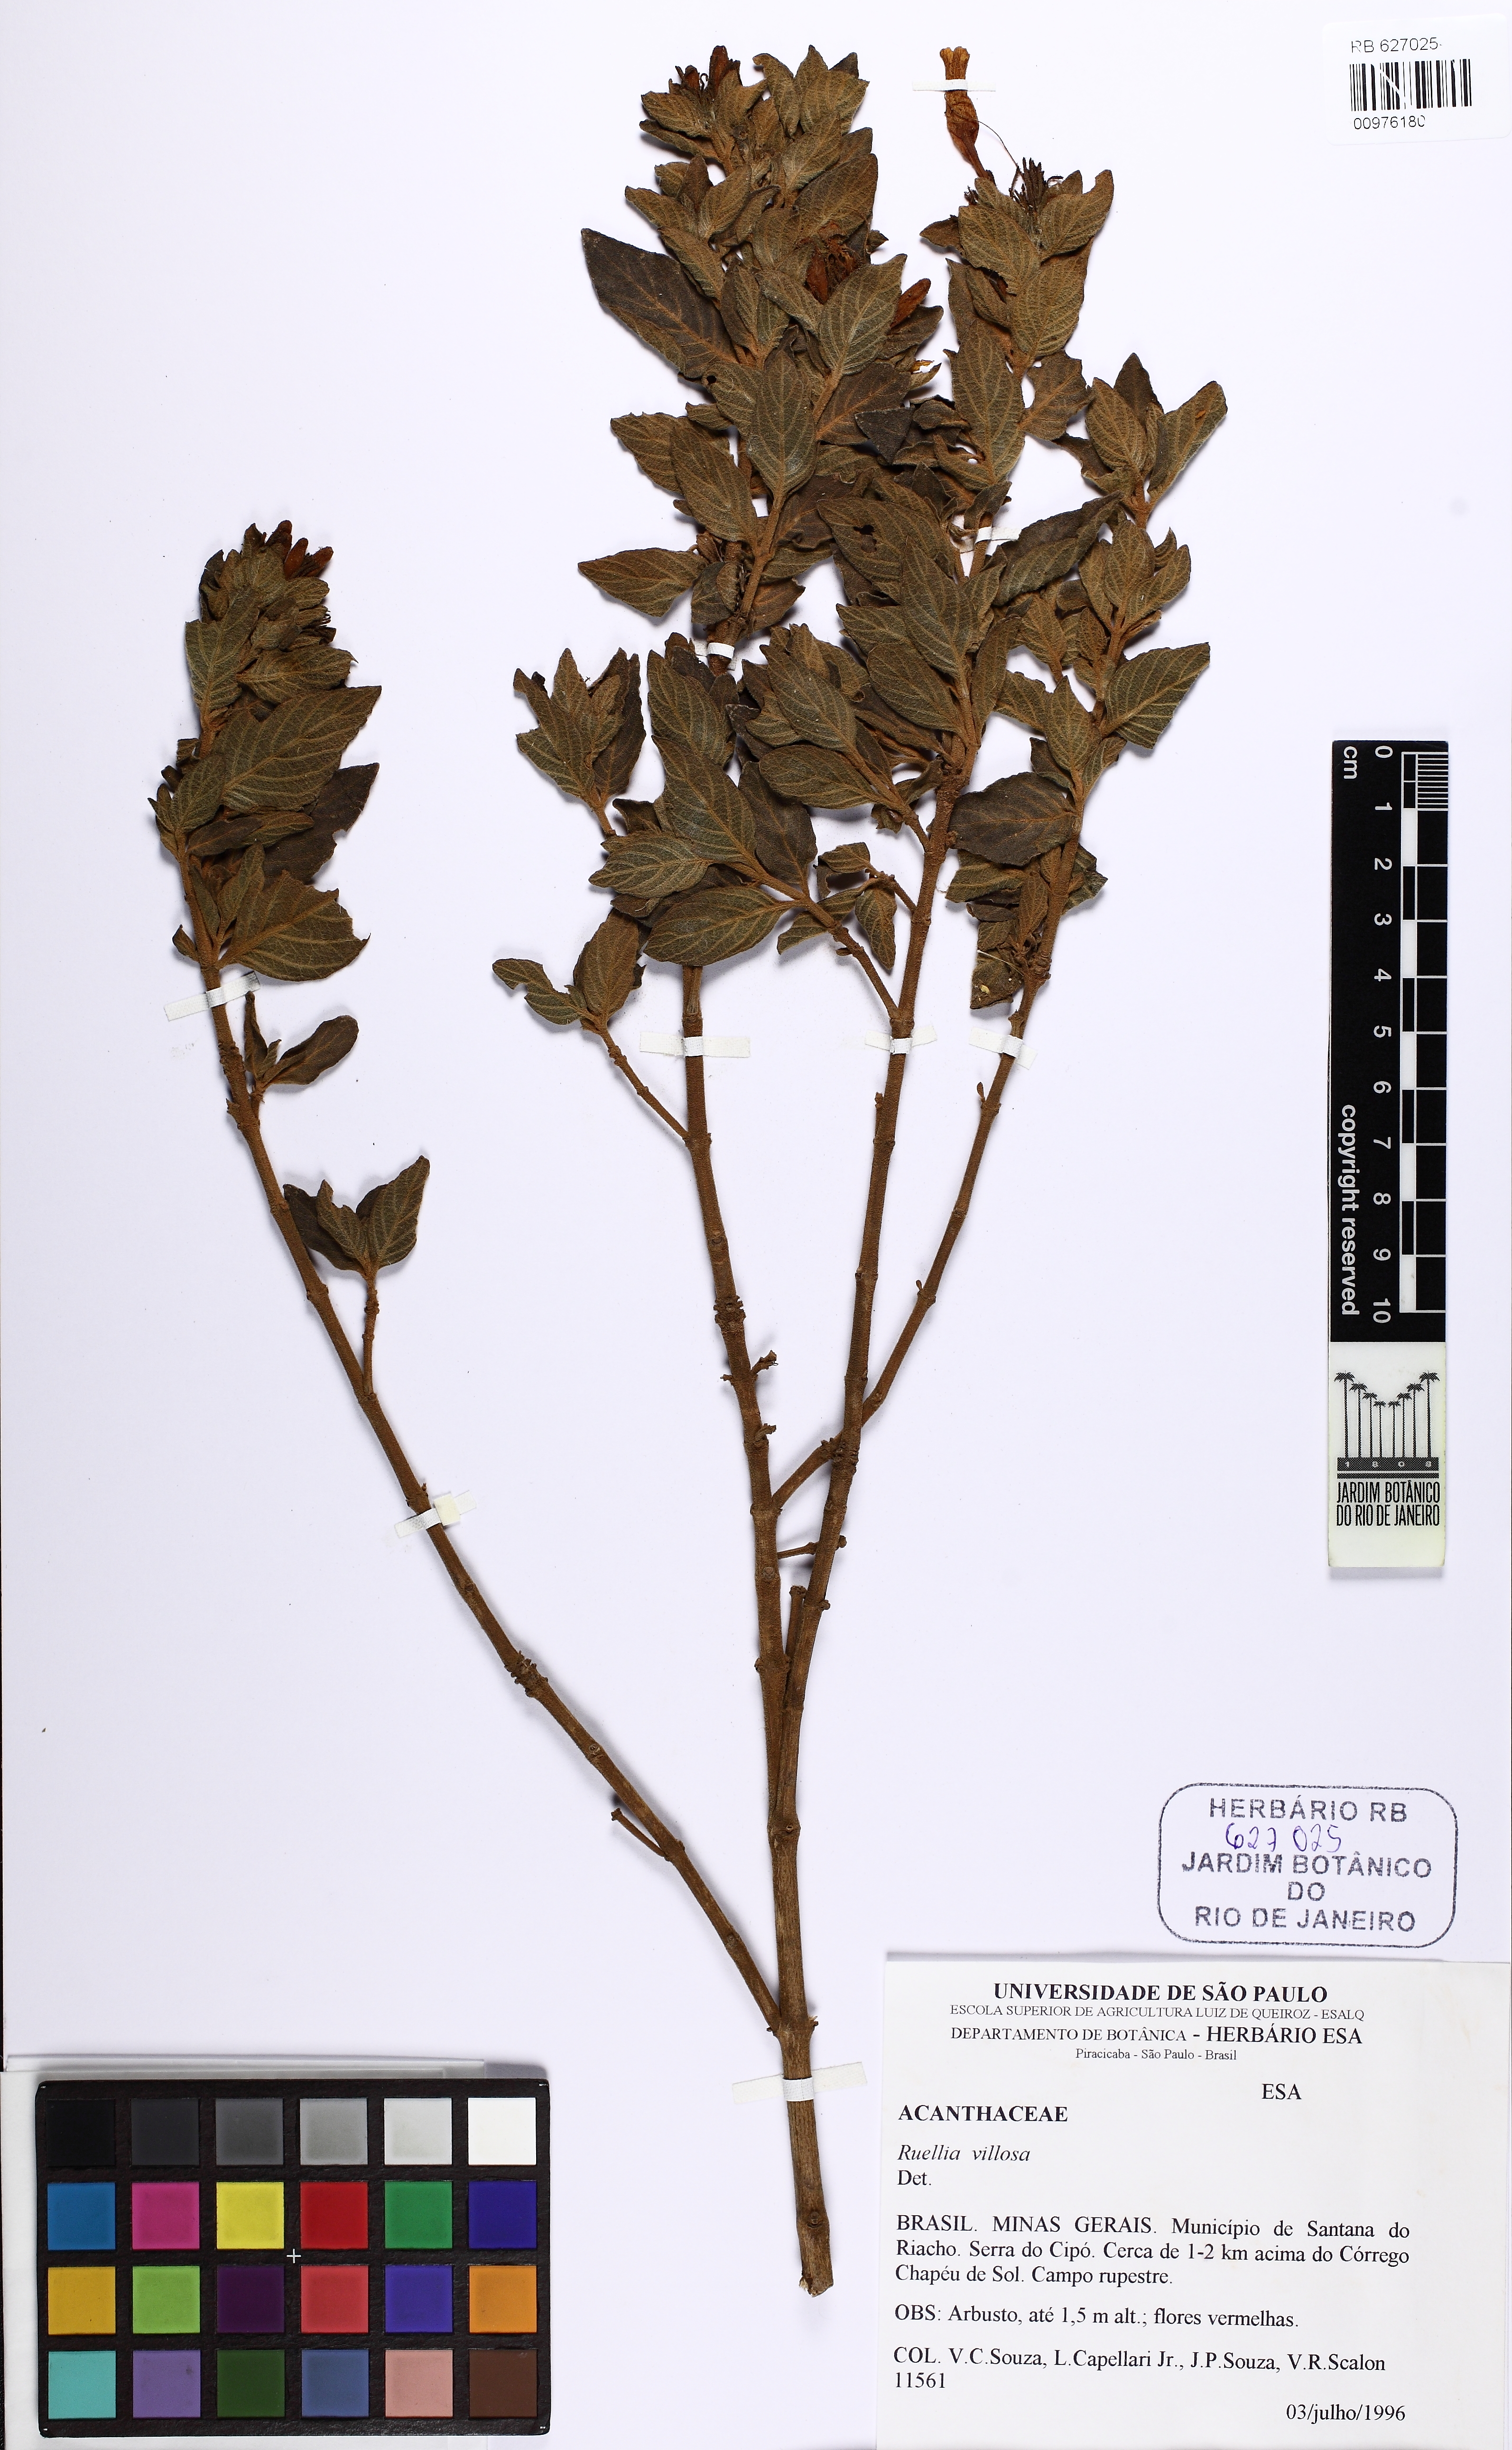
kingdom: Plantae
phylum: Tracheophyta
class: Magnoliopsida
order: Lamiales
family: Acanthaceae
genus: Ruellia
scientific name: Ruellia villosa
